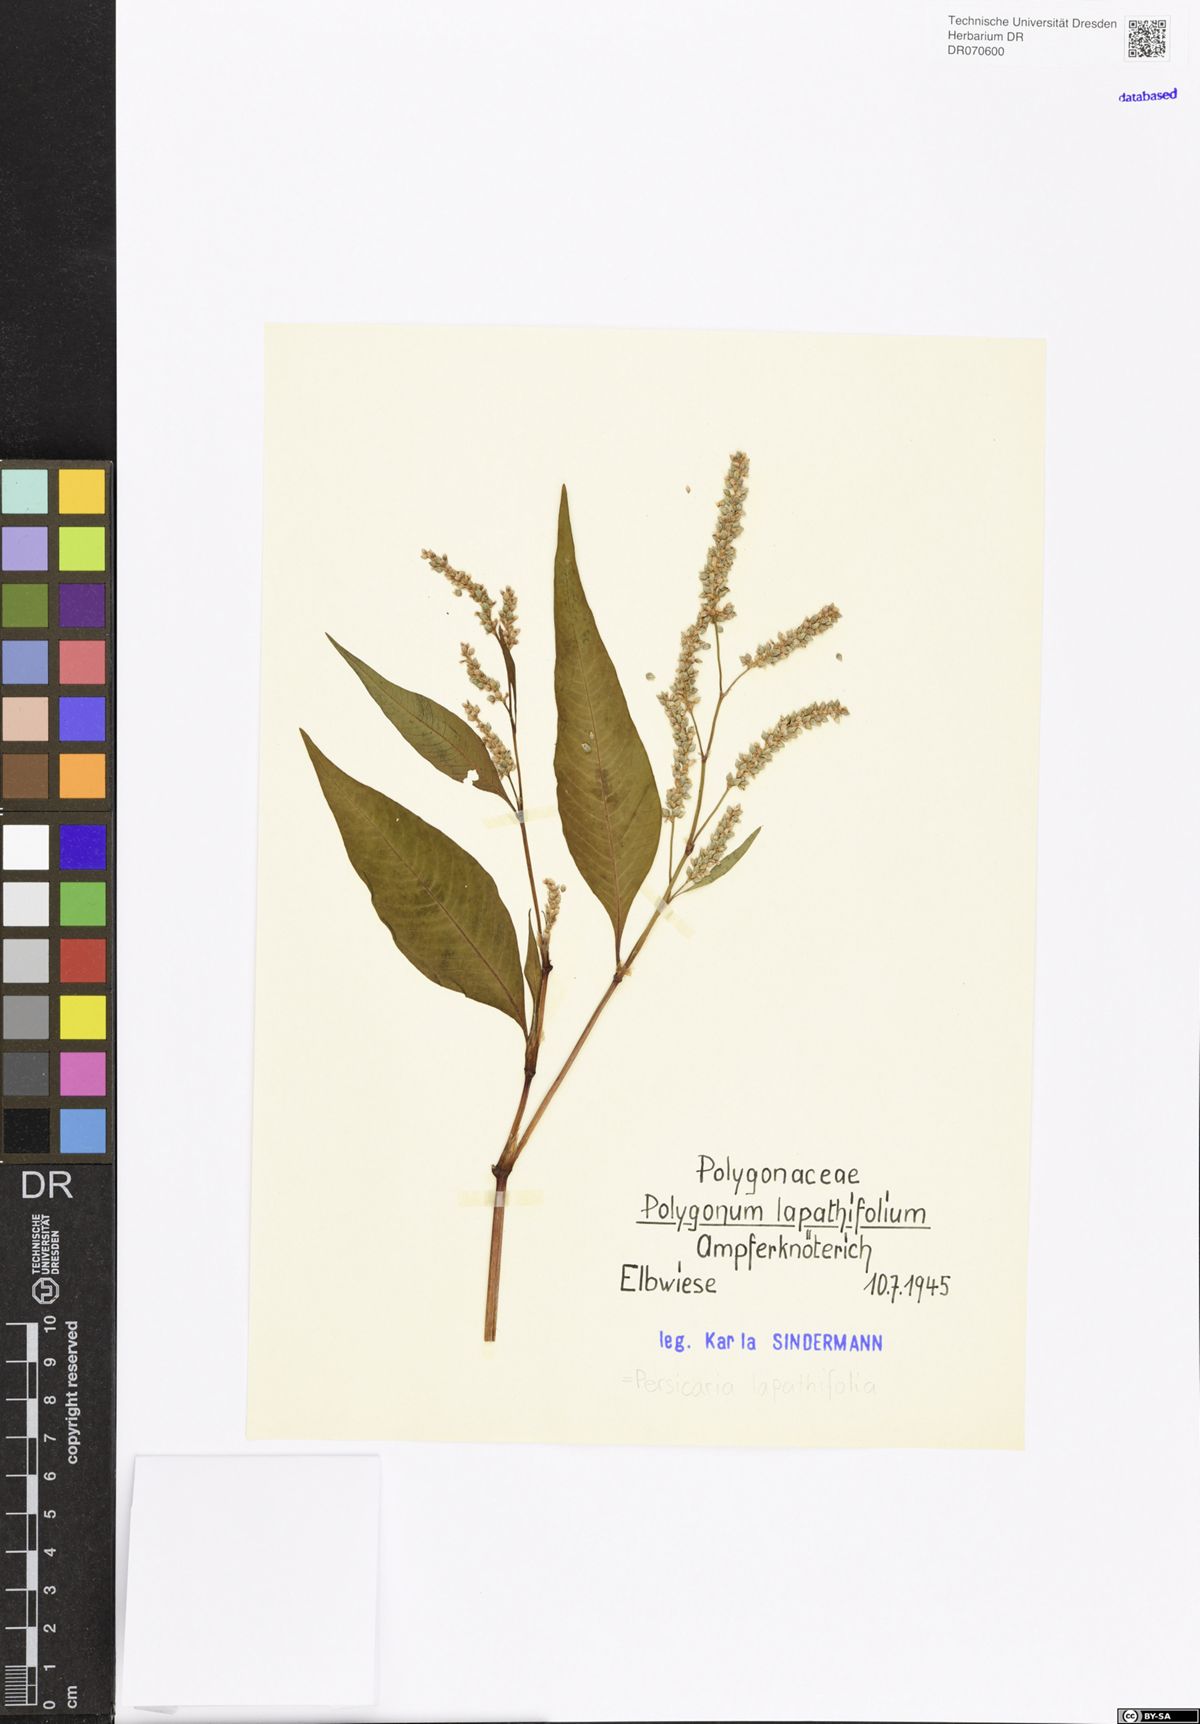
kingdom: Plantae
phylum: Tracheophyta
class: Magnoliopsida
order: Caryophyllales
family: Polygonaceae
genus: Persicaria
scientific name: Persicaria lapathifolia
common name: Curlytop knotweed
